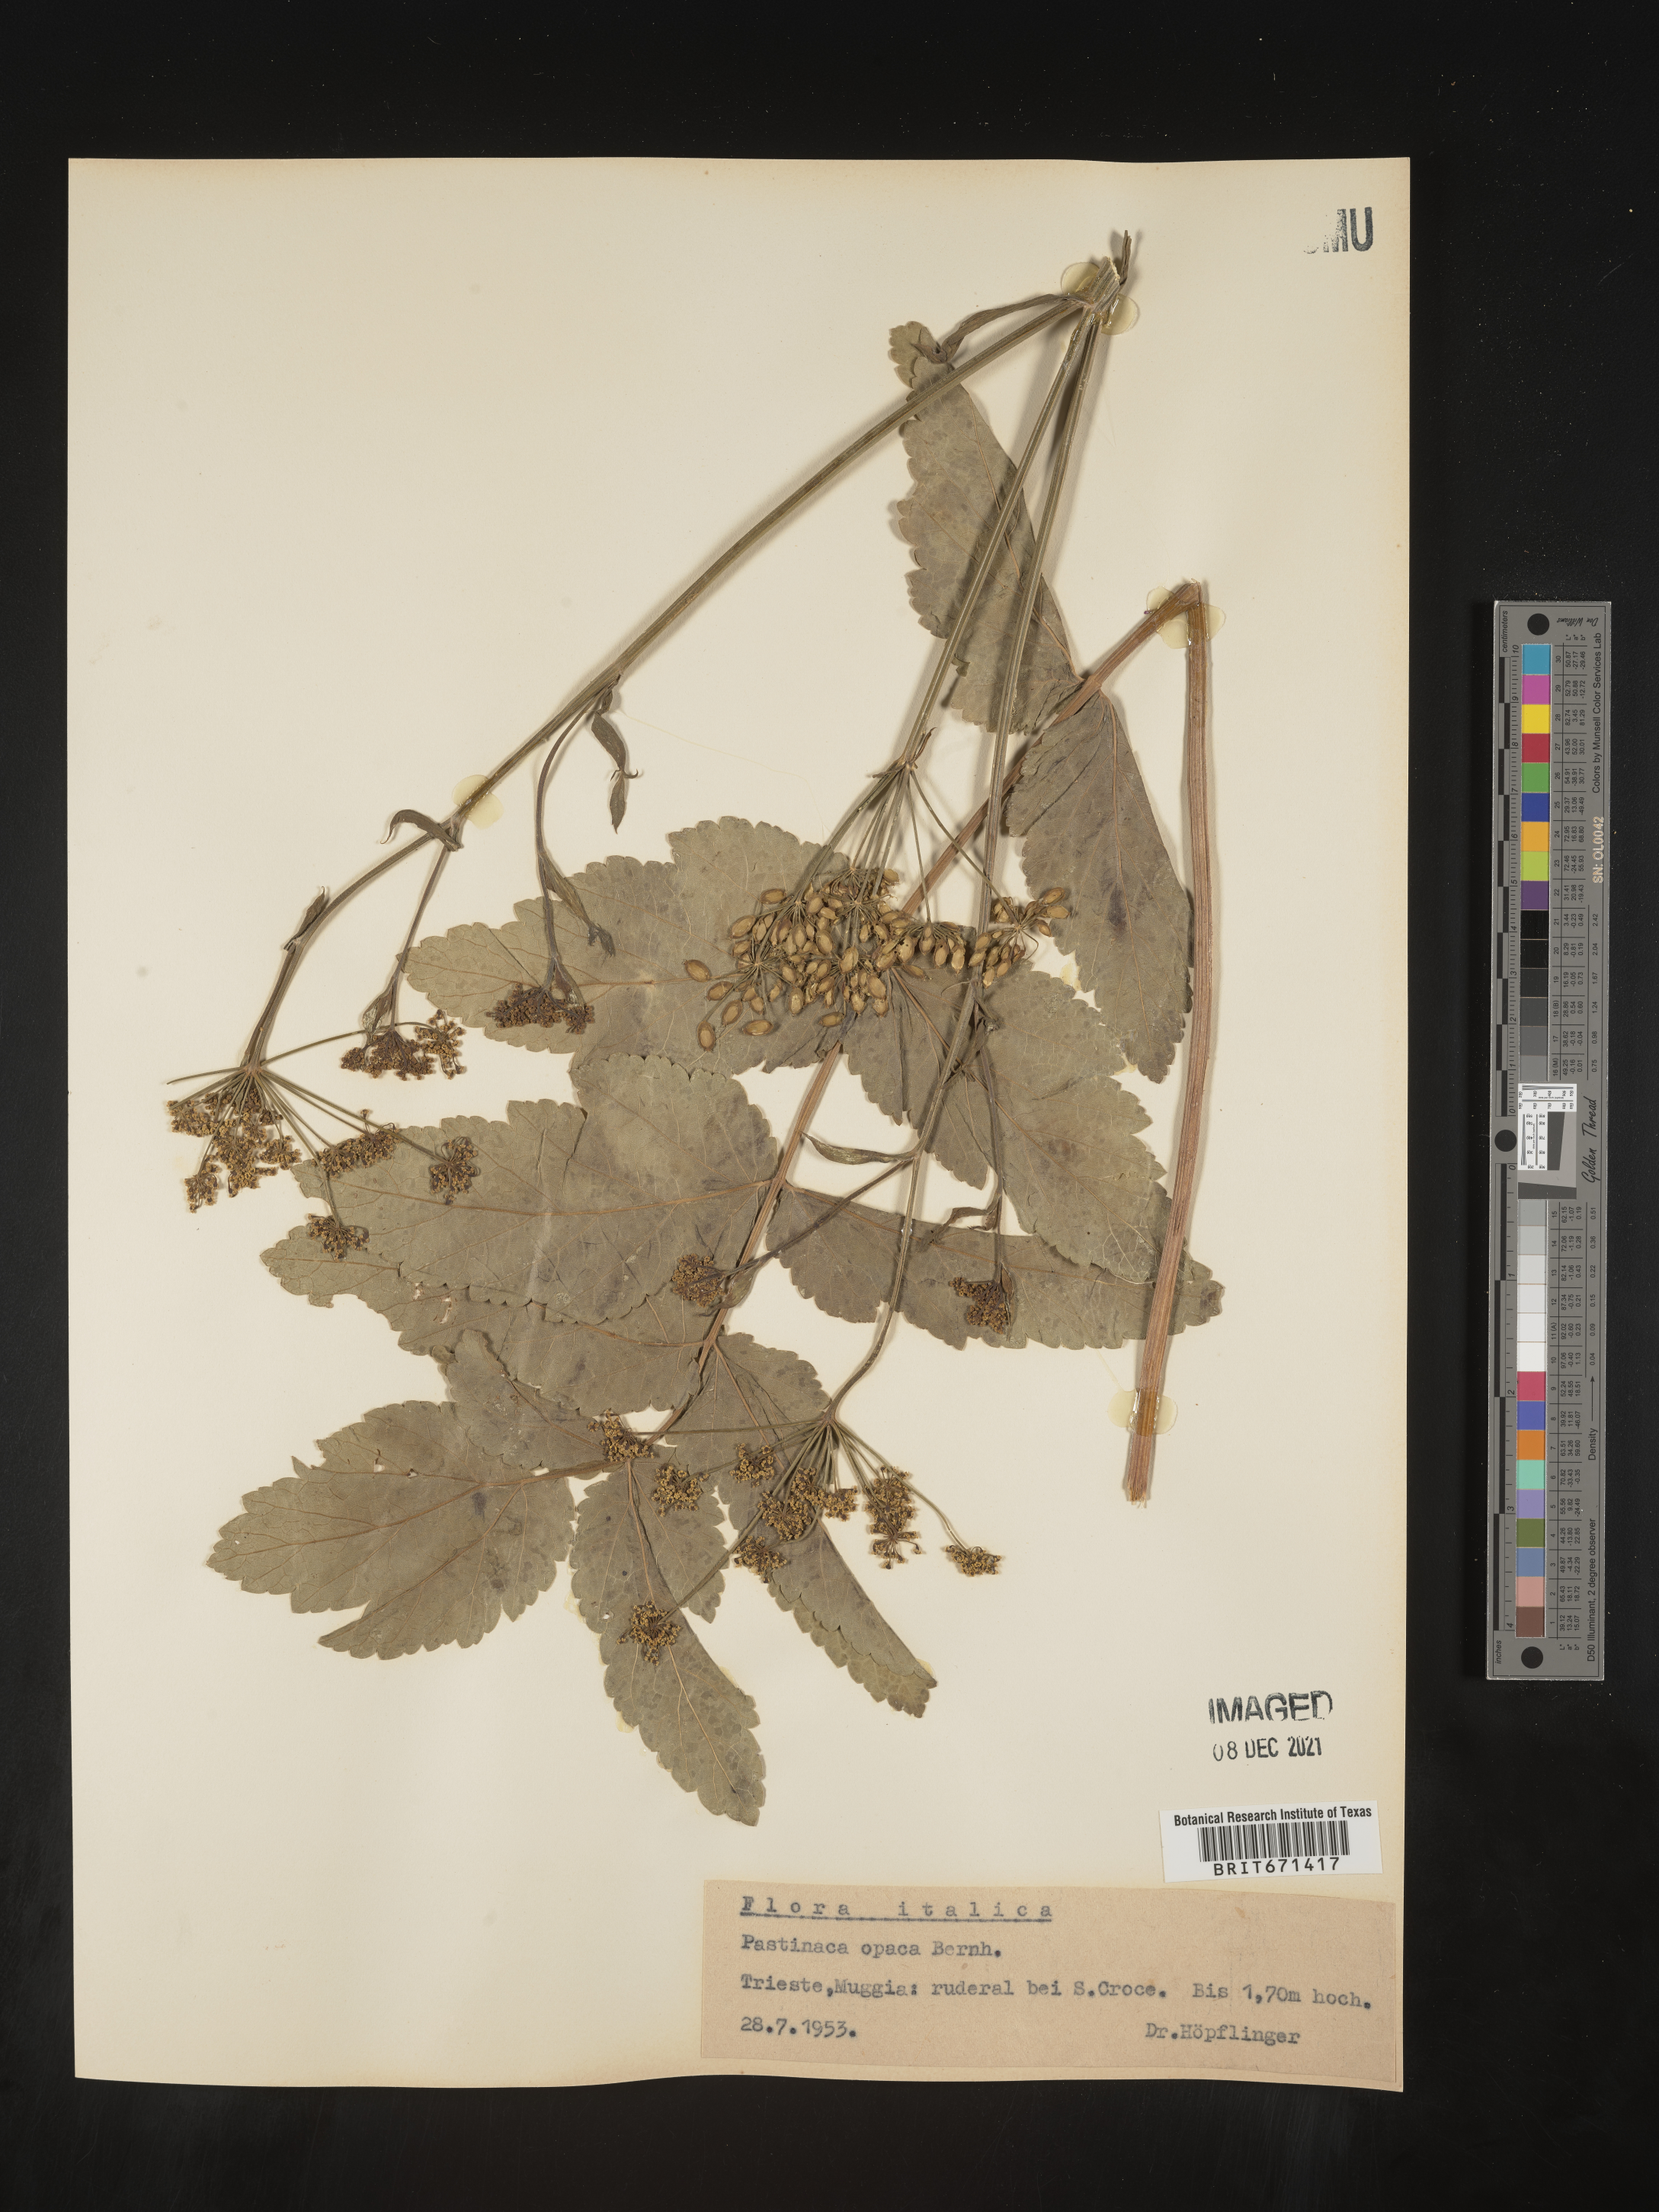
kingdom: Plantae
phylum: Tracheophyta
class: Magnoliopsida
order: Apiales
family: Apiaceae
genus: Pastinaca
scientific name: Pastinaca
